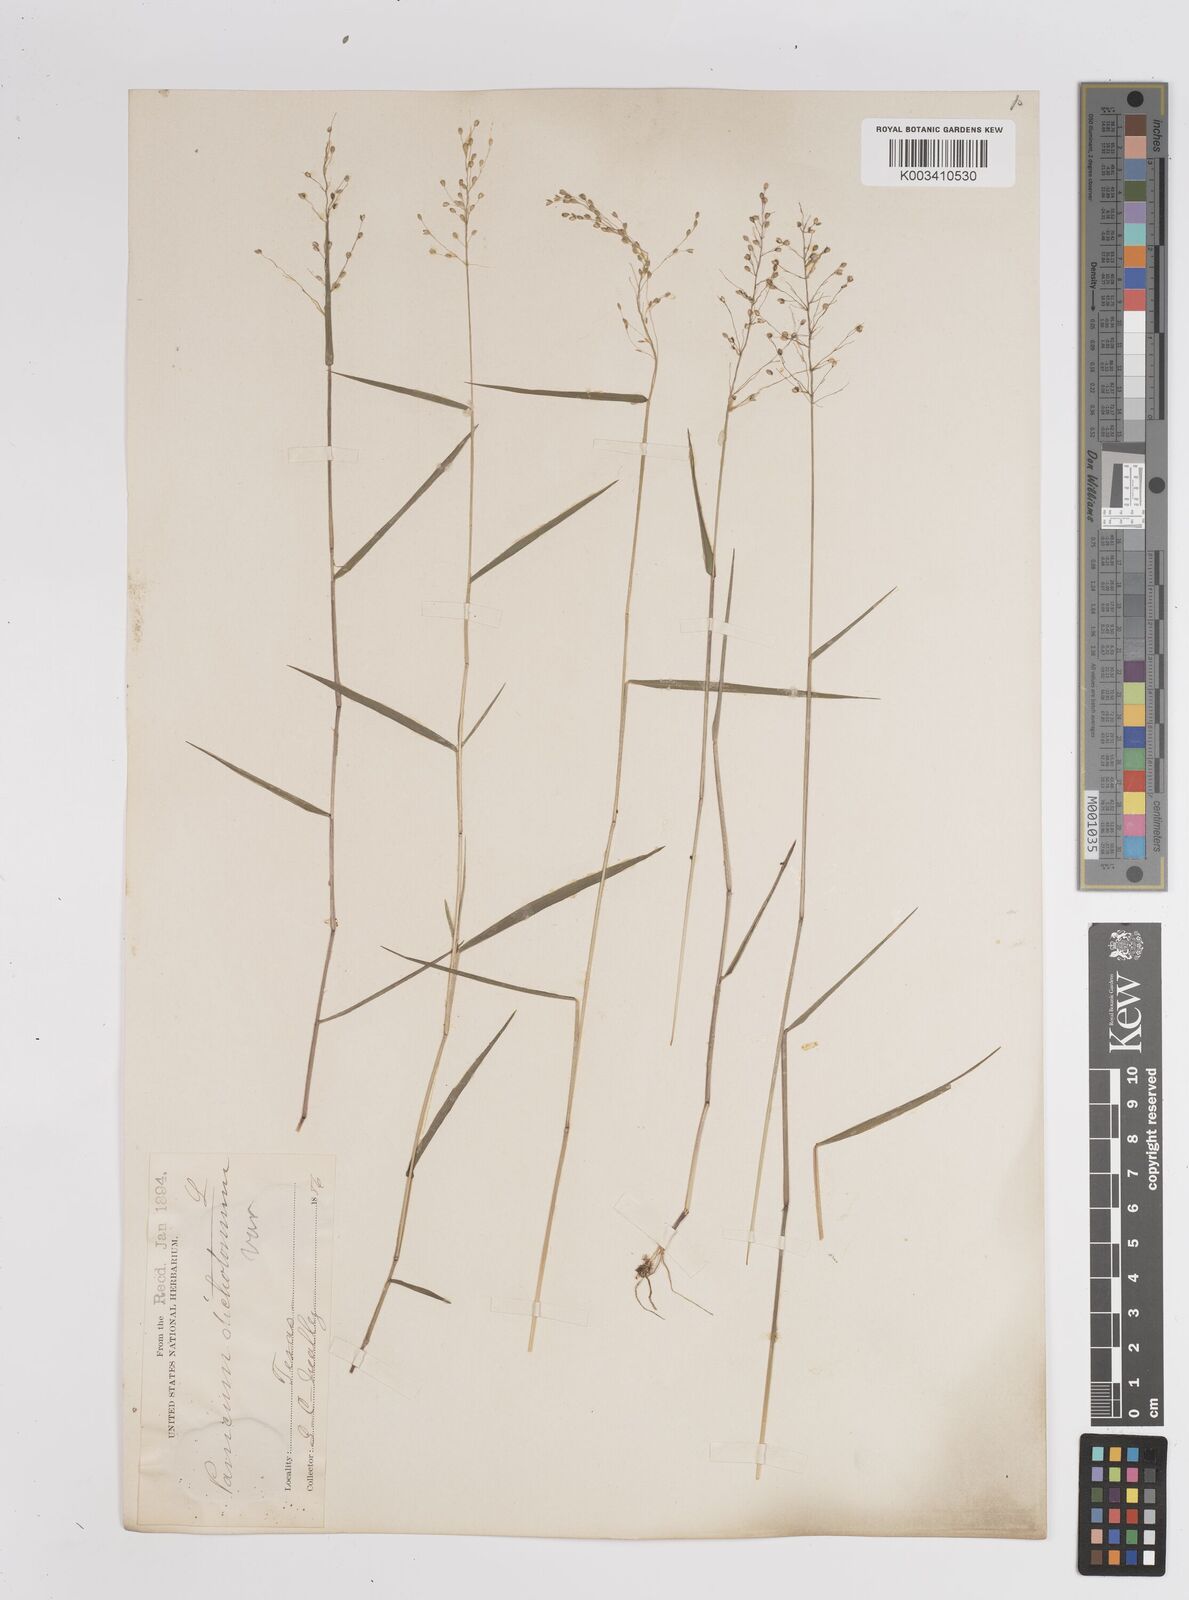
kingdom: Plantae
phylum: Tracheophyta
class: Liliopsida
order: Poales
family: Poaceae
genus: Dichanthelium
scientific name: Dichanthelium polyanthes
